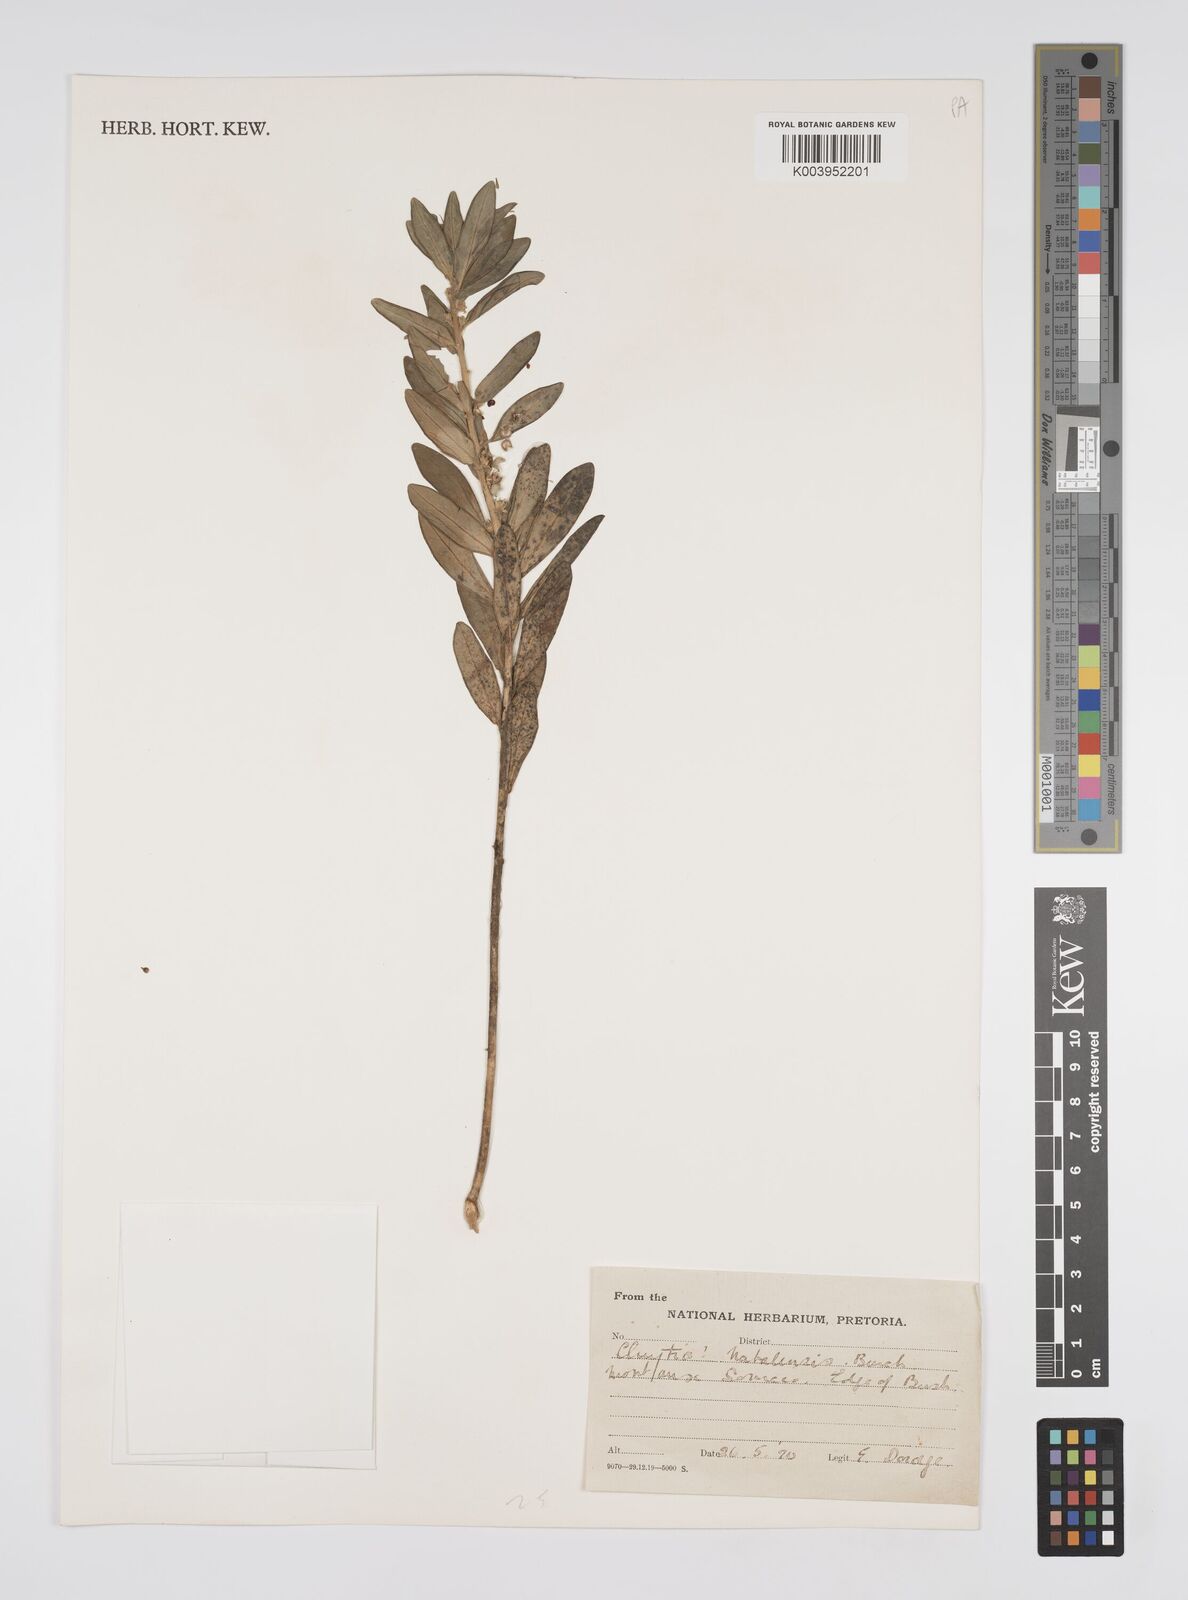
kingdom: Plantae
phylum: Tracheophyta
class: Magnoliopsida
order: Malpighiales
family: Peraceae
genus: Clutia
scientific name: Clutia natalensis
